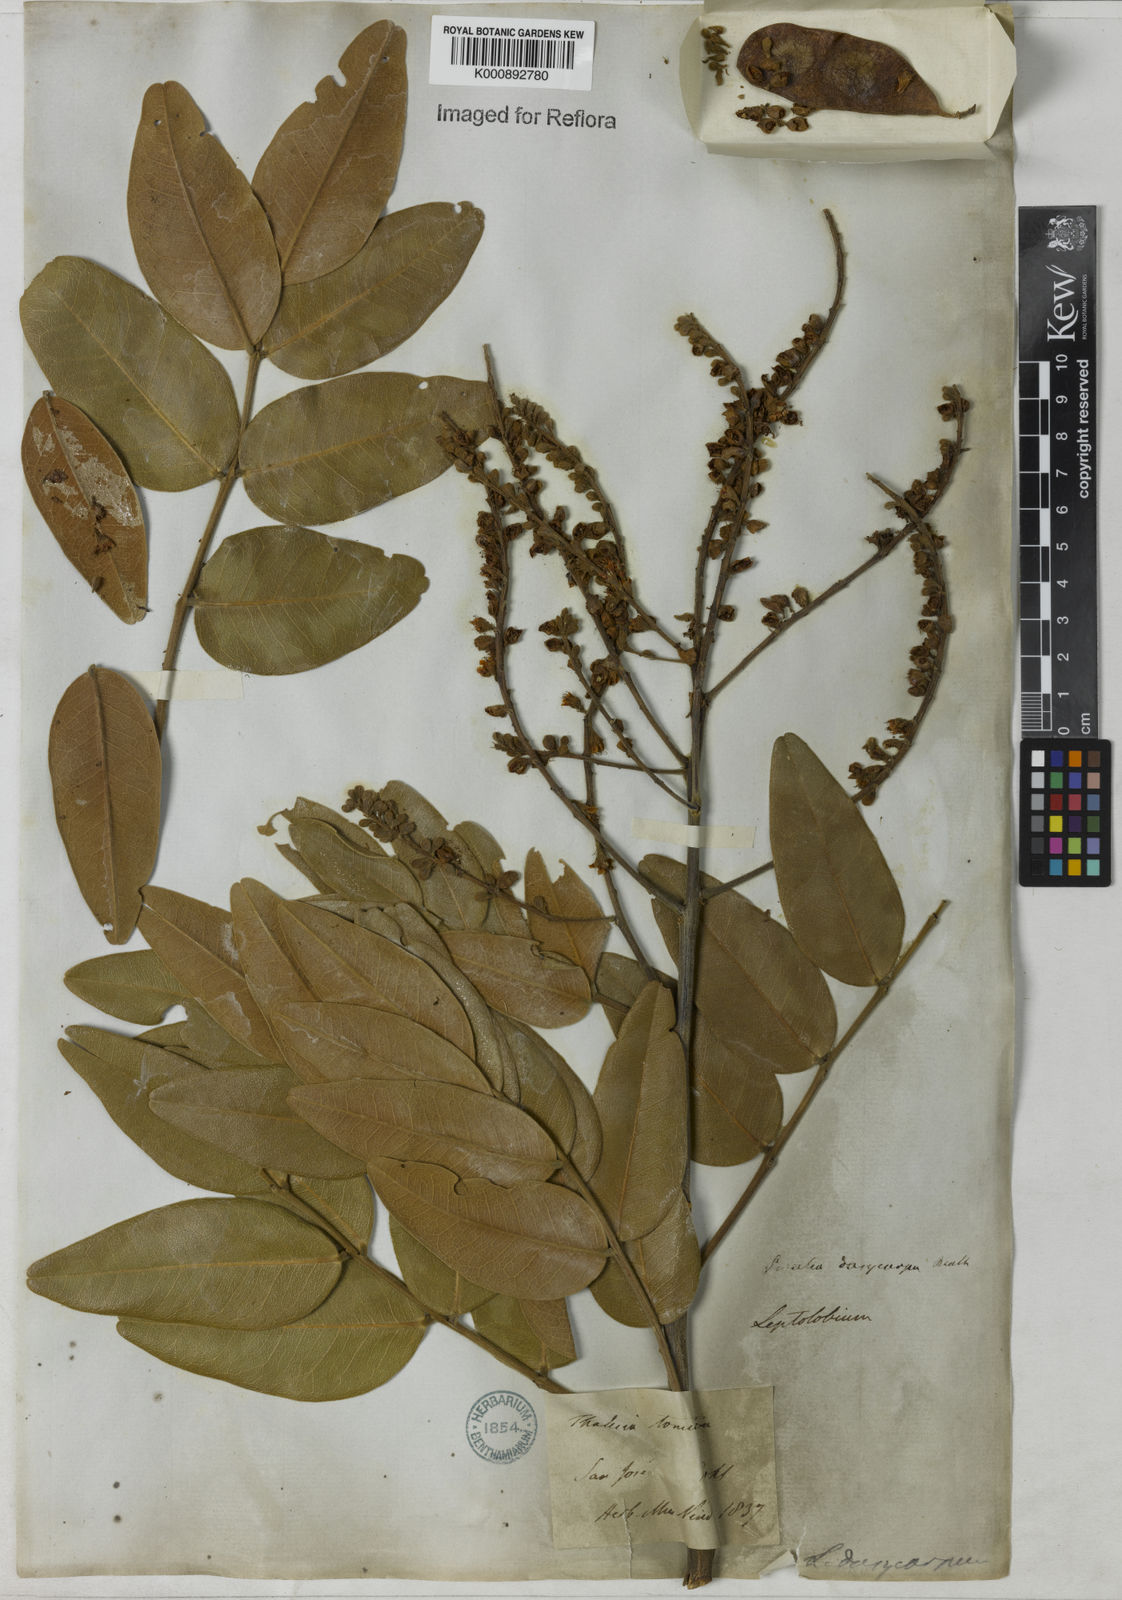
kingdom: Plantae
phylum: Tracheophyta
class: Magnoliopsida
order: Fabales
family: Fabaceae
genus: Leptolobium
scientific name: Leptolobium
